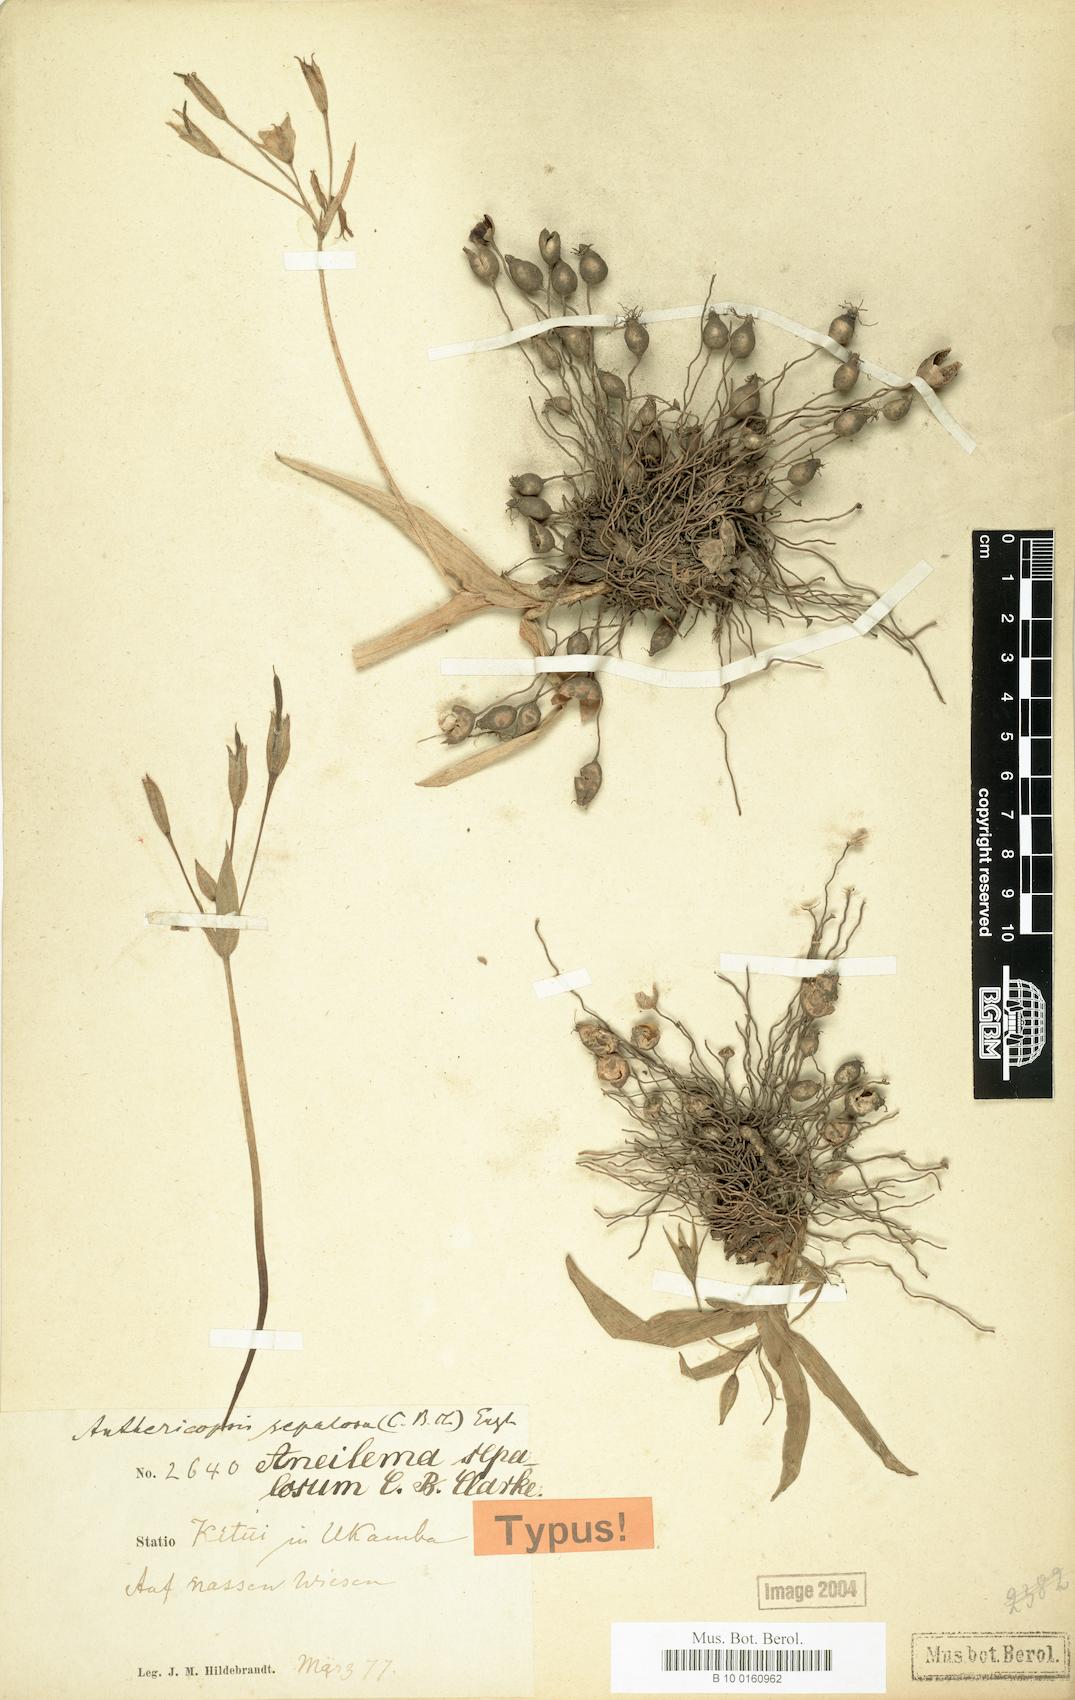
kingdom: Plantae
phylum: Tracheophyta
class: Liliopsida
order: Commelinales
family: Commelinaceae
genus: Anthericopsis
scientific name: Anthericopsis sepalosa
